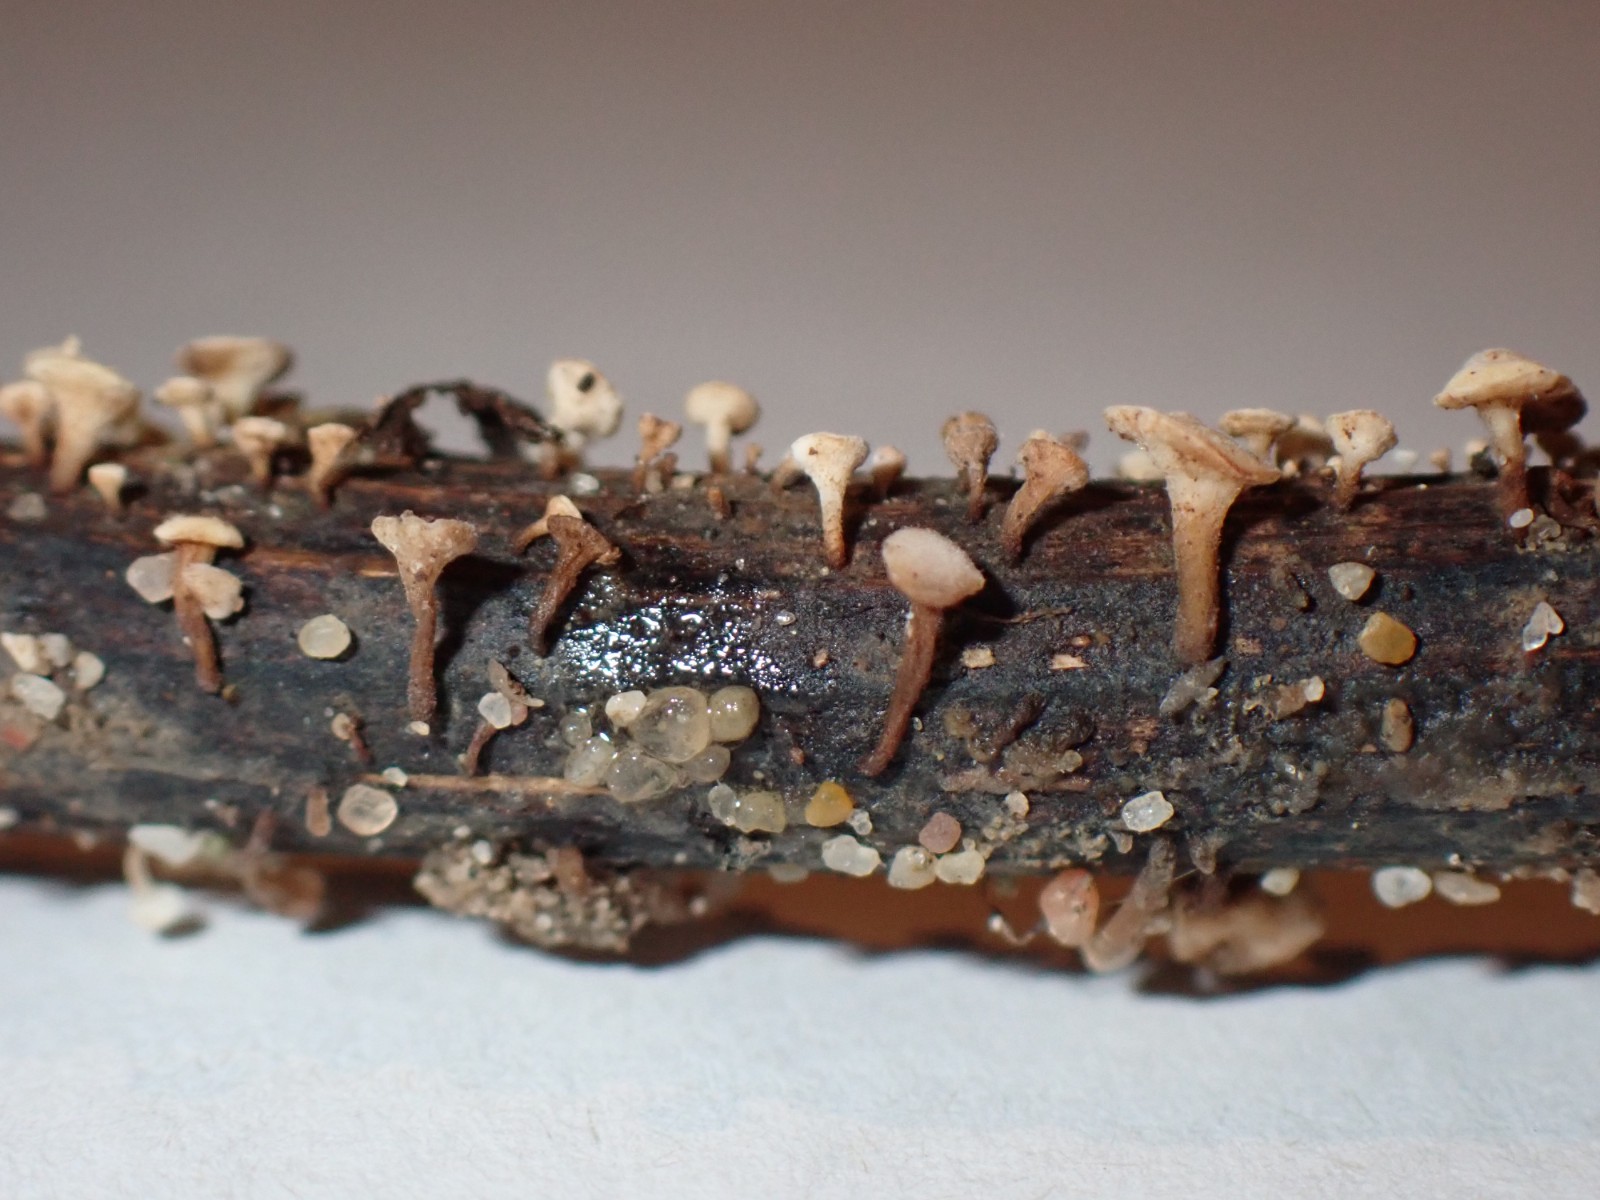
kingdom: Fungi
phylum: Ascomycota
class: Leotiomycetes
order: Helotiales
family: Helotiaceae
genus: Hymenoscyphus
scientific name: Hymenoscyphus scutula
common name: almindelig stilkskive
